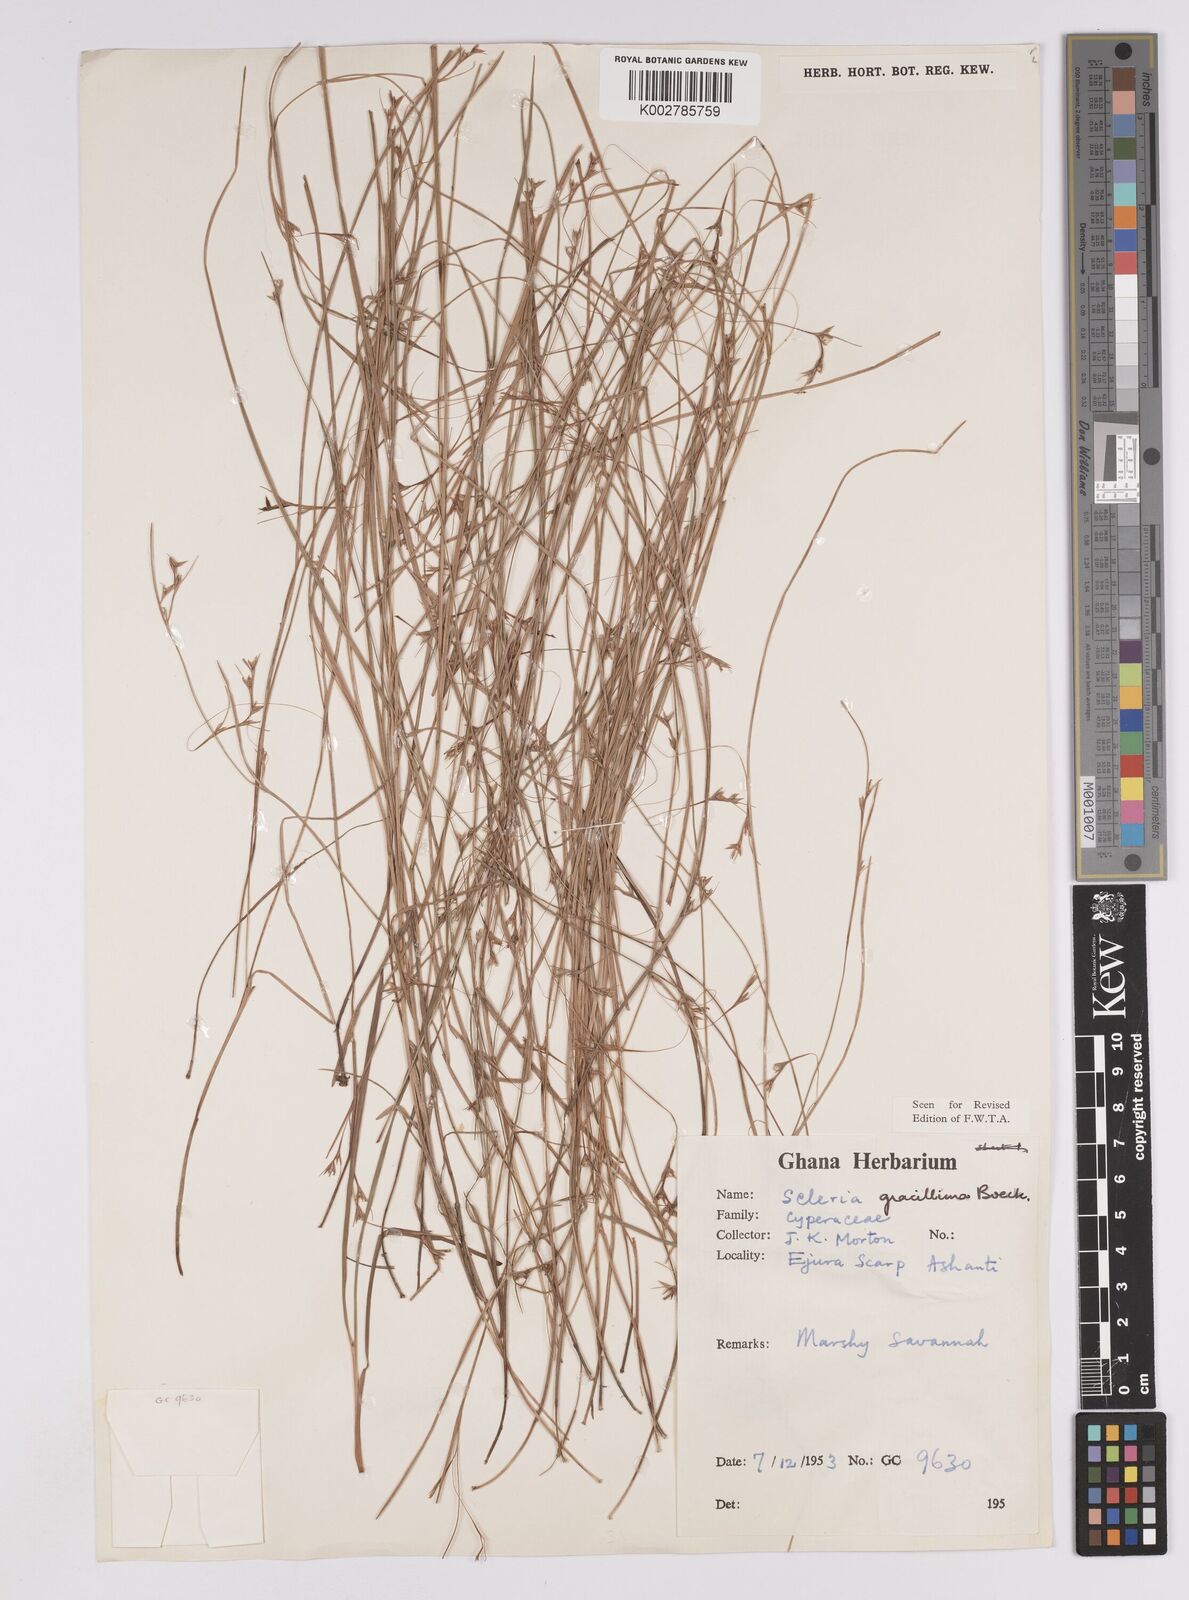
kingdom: Plantae
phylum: Tracheophyta
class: Liliopsida
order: Poales
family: Cyperaceae
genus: Scleria
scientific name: Scleria gracillima
